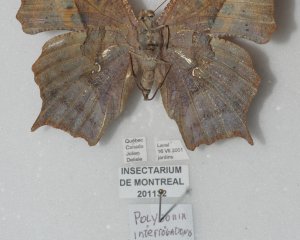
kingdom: Animalia
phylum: Arthropoda
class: Insecta
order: Lepidoptera
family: Nymphalidae
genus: Polygonia
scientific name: Polygonia interrogationis
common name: Question Mark
